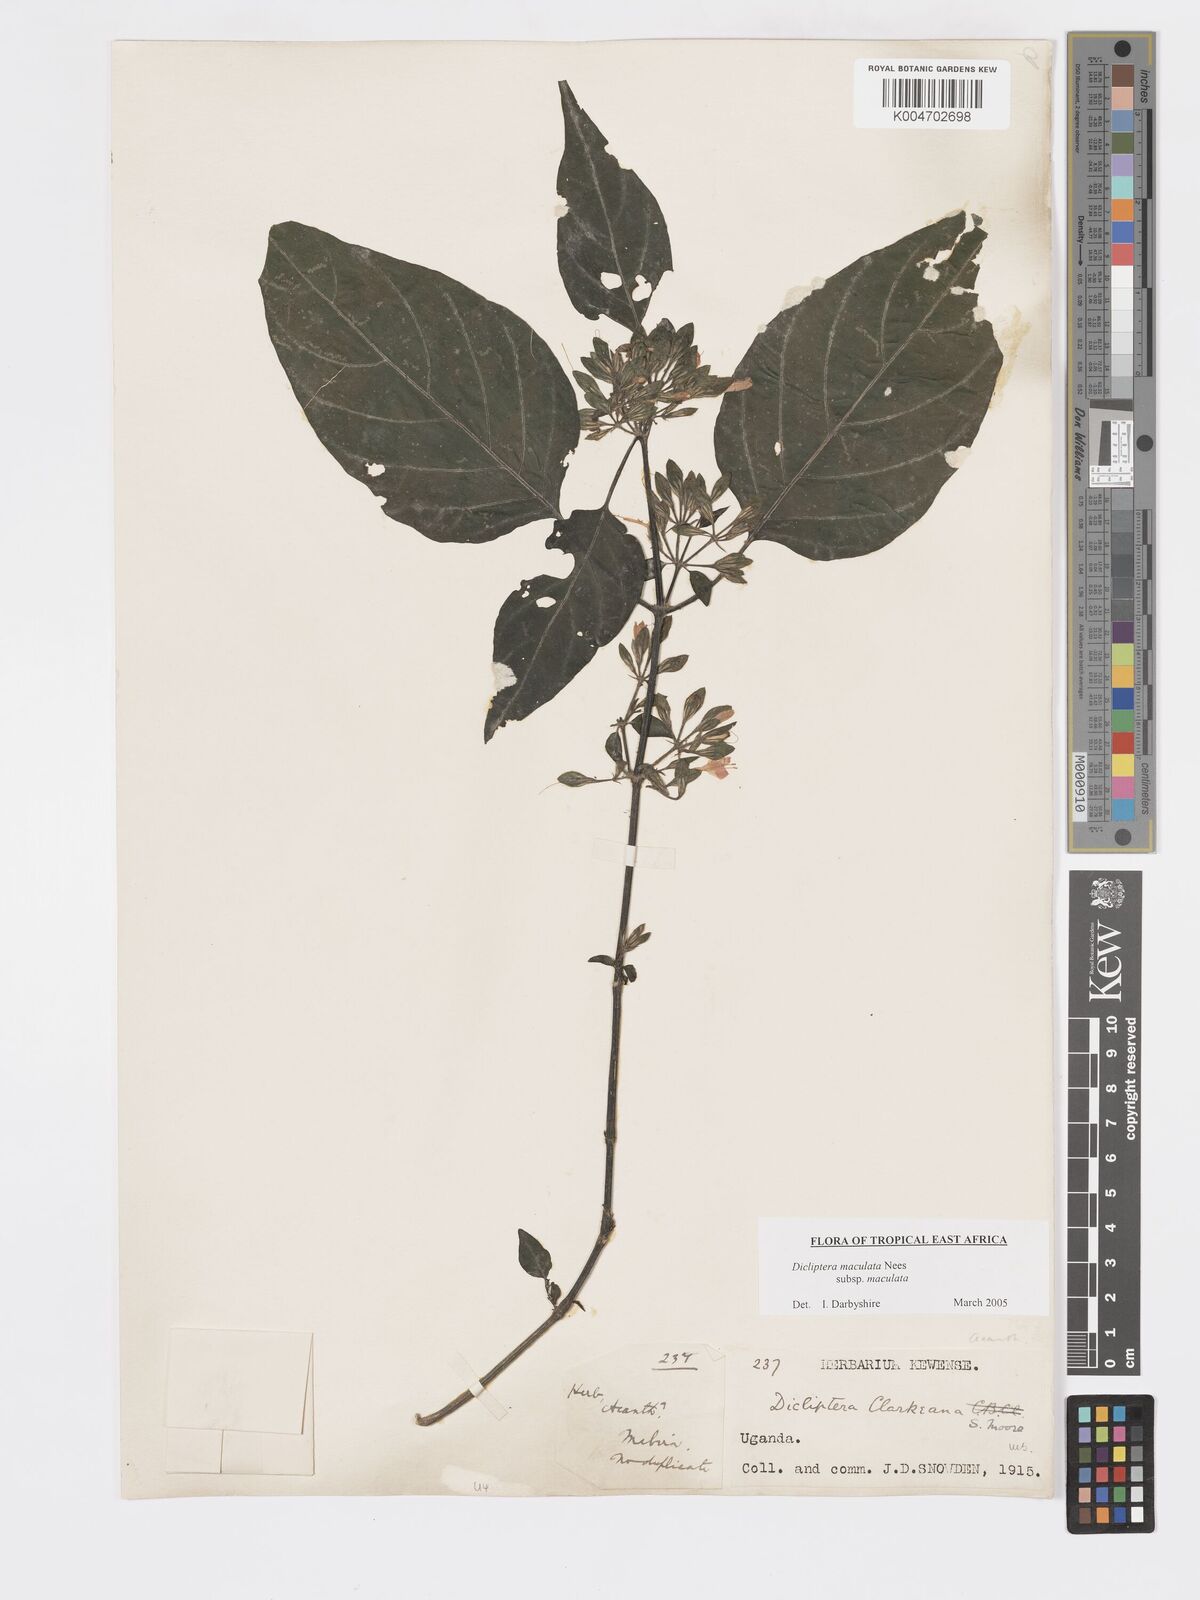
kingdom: Plantae
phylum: Tracheophyta
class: Magnoliopsida
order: Lamiales
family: Acanthaceae
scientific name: Acanthaceae
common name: Acanthaceae
